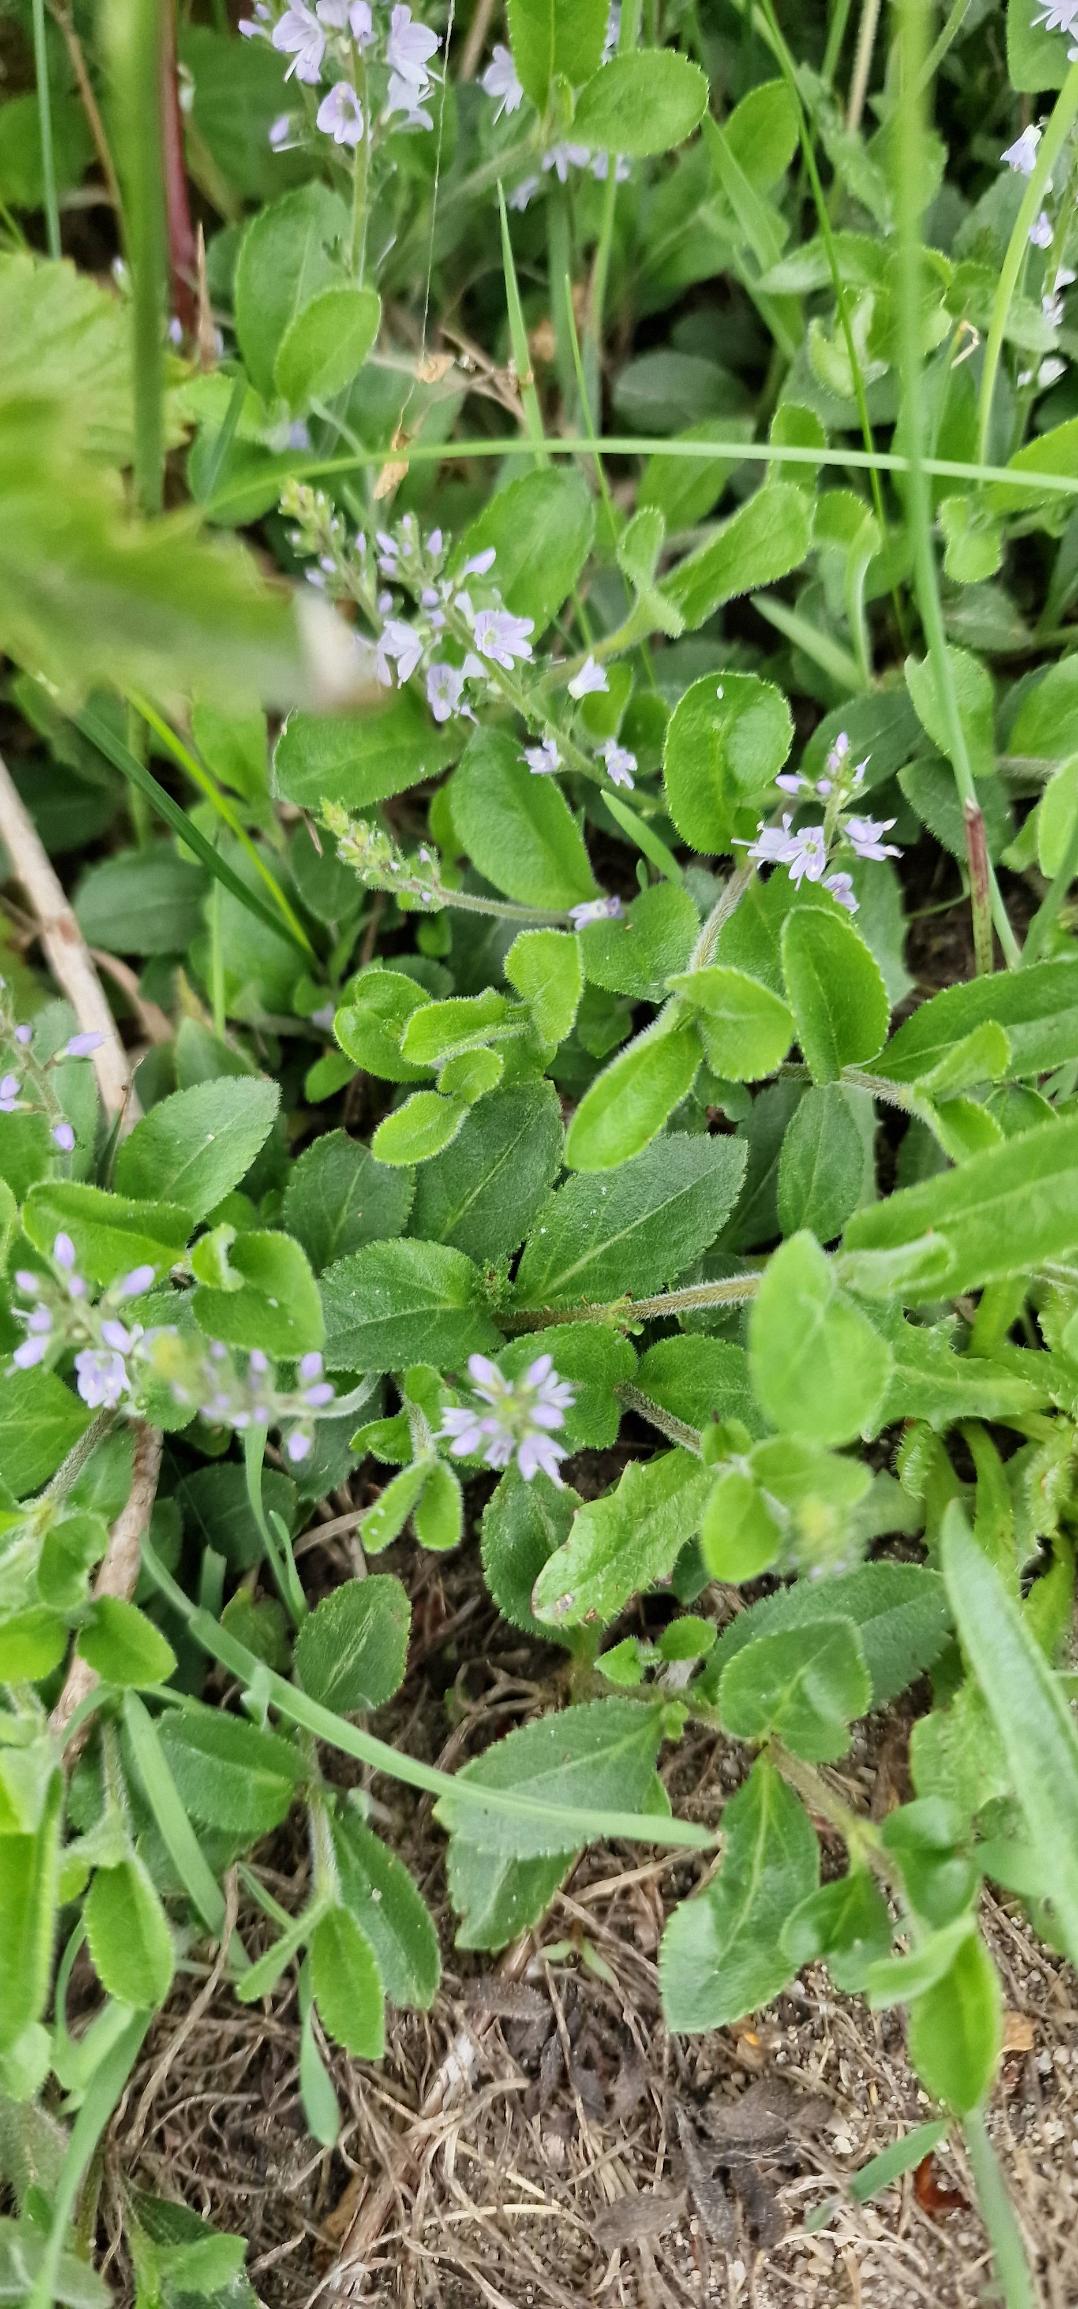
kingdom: Plantae
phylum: Tracheophyta
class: Magnoliopsida
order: Lamiales
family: Plantaginaceae
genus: Veronica
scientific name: Veronica officinalis
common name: Læge-ærenpris
